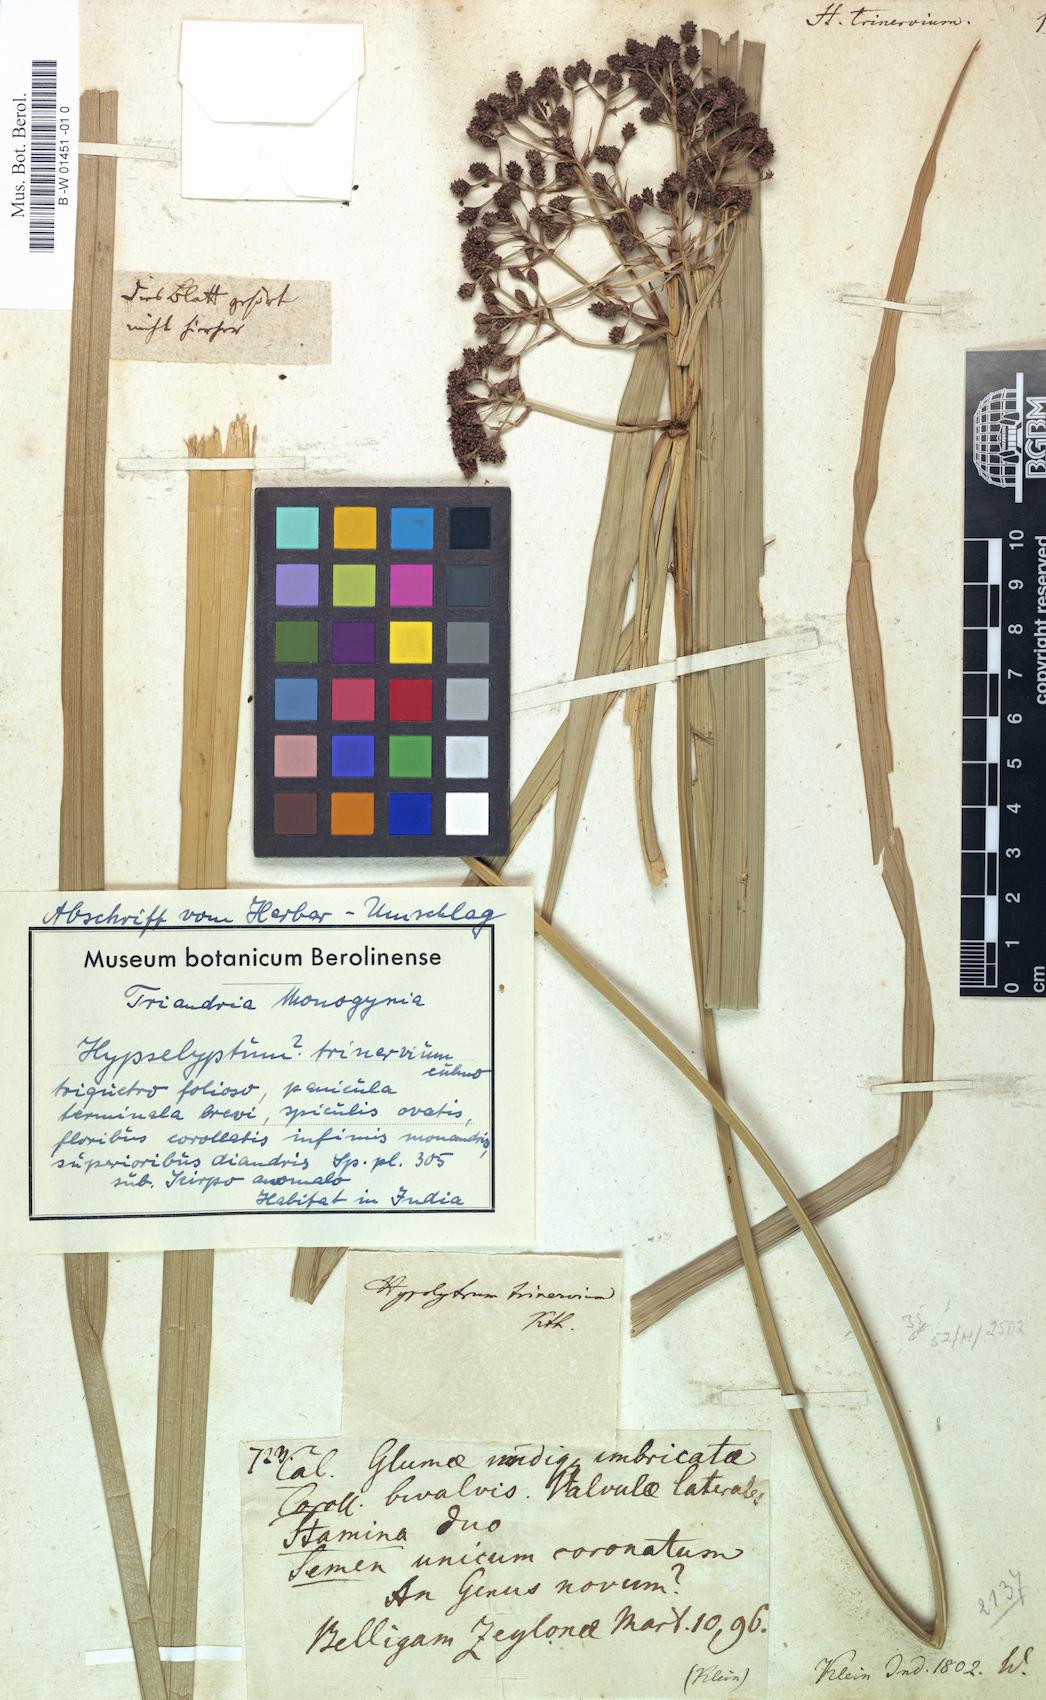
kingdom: Plantae
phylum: Tracheophyta
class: Liliopsida
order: Poales
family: Cyperaceae
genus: Cyperus
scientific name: Cyperus
